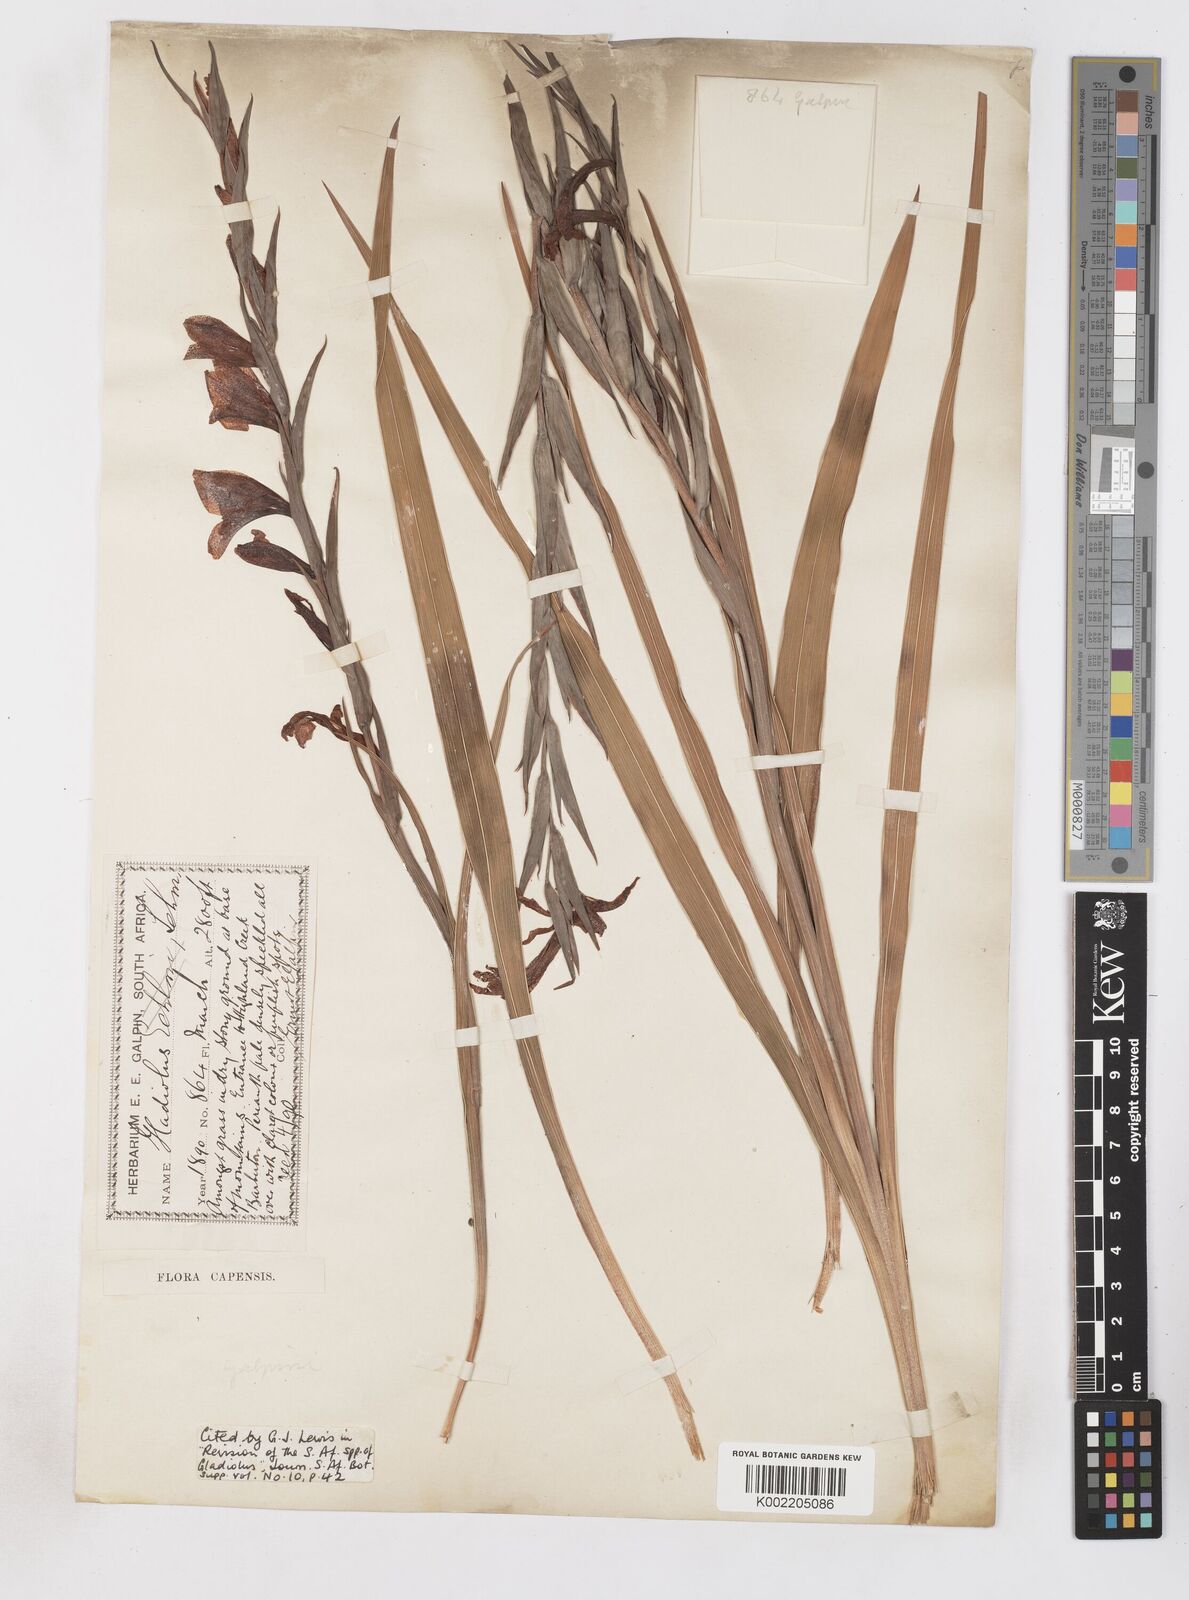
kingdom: Plantae
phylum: Tracheophyta
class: Liliopsida
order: Asparagales
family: Iridaceae
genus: Gladiolus
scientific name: Gladiolus ecklonii
